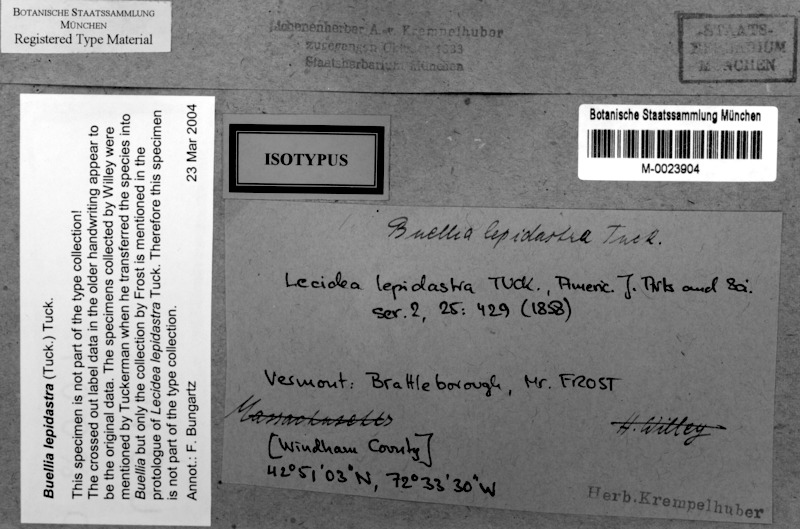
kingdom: Fungi
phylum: Ascomycota
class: Lecanoromycetes
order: Caliciales
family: Caliciaceae
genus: Buellia
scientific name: Buellia lepidastra
